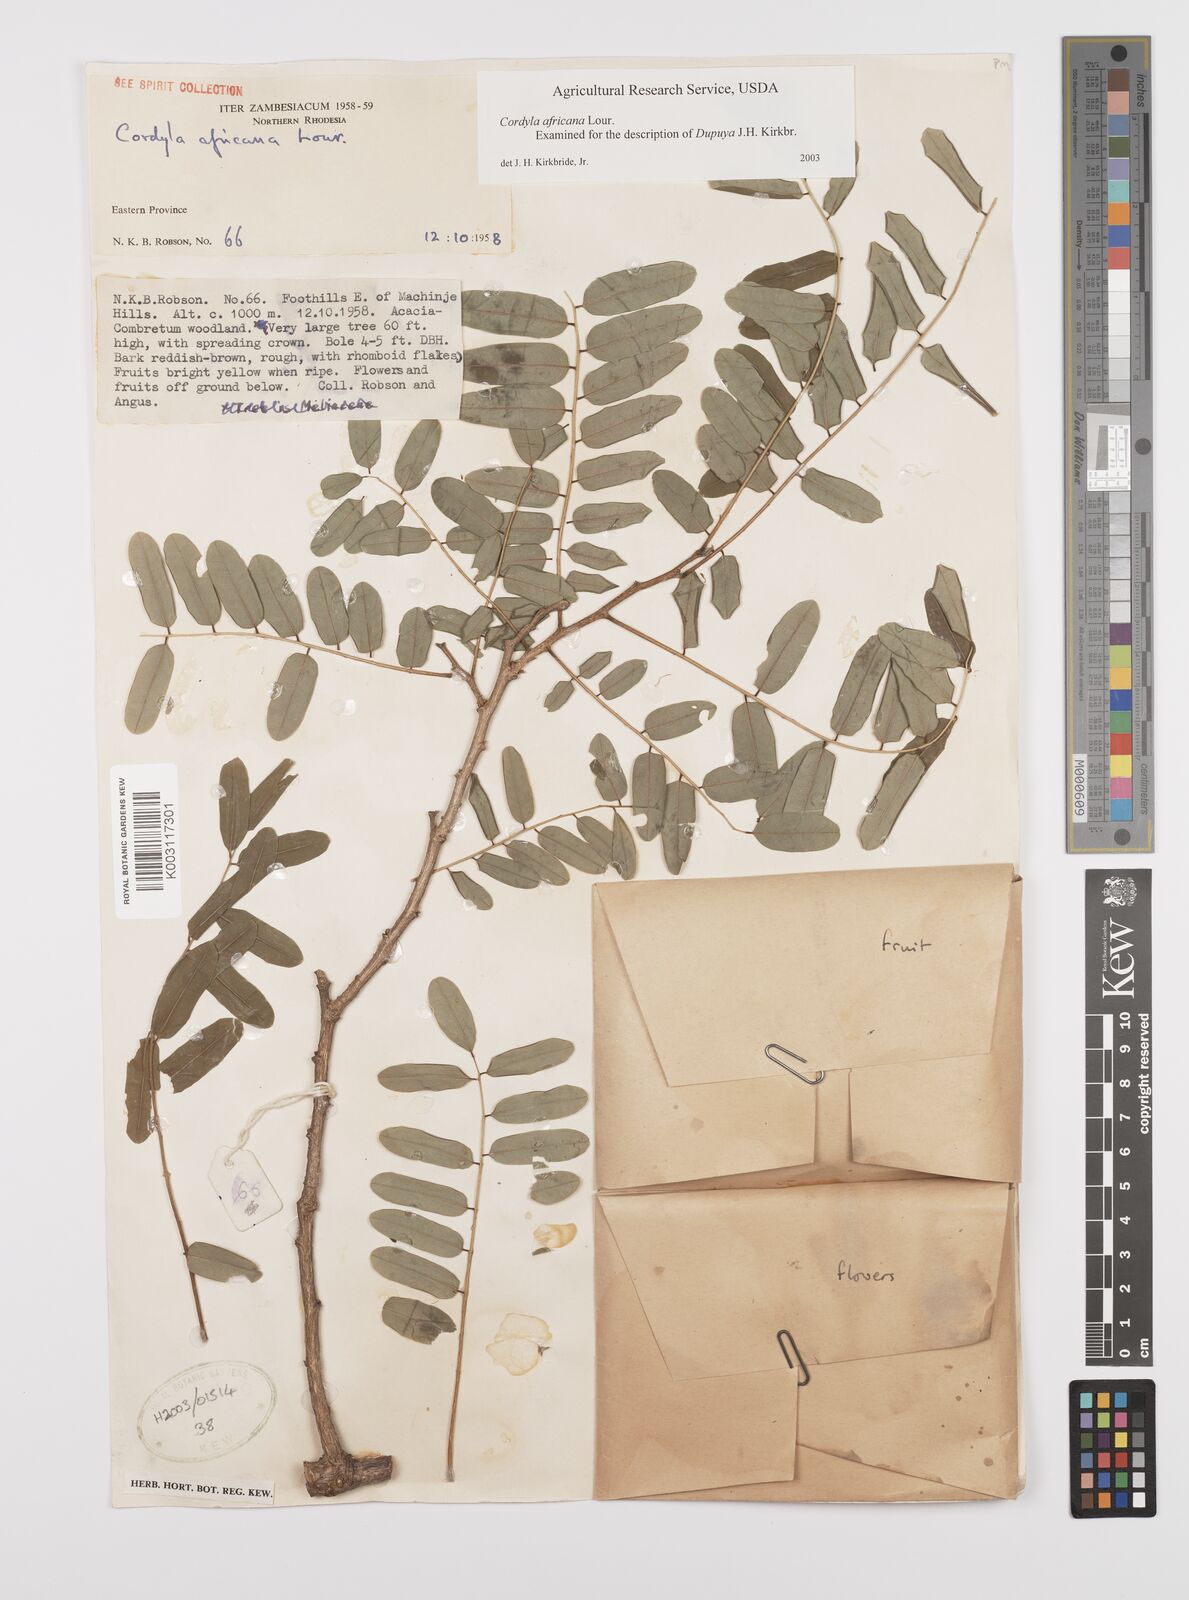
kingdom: Plantae
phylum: Tracheophyta
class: Magnoliopsida
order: Fabales
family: Fabaceae
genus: Cordyla
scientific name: Cordyla africana
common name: Wild mango
